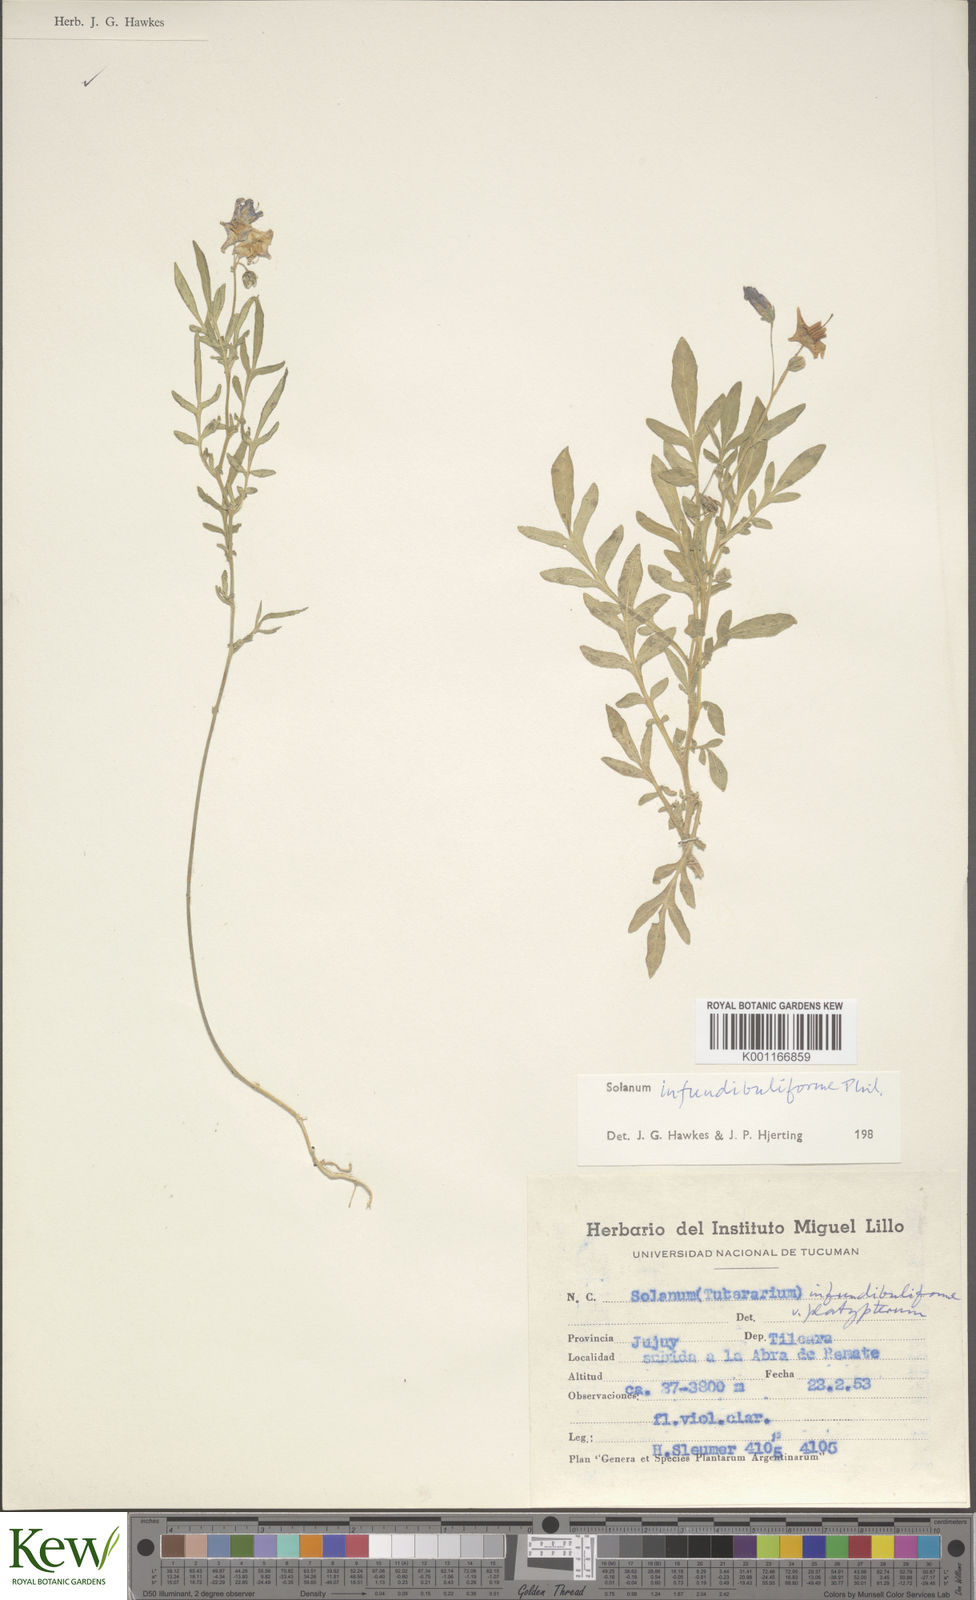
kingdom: Plantae
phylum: Tracheophyta
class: Magnoliopsida
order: Solanales
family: Solanaceae
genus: Solanum
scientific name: Solanum infundibuliforme
